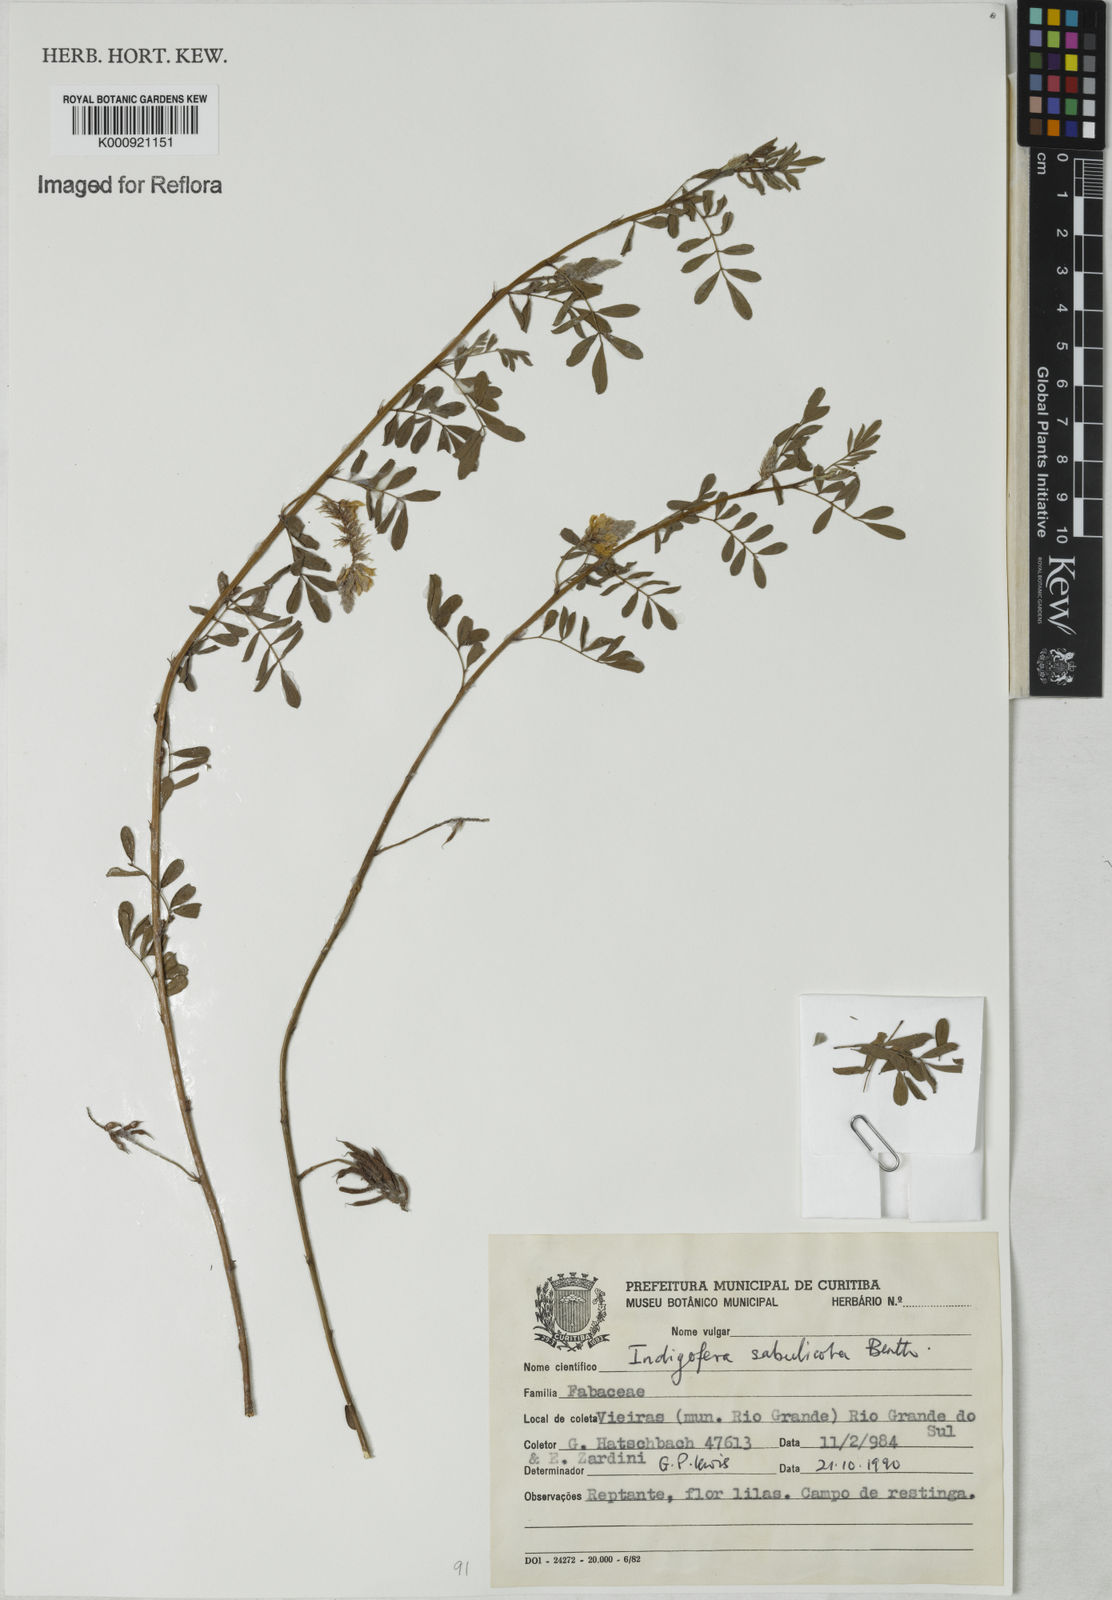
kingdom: Plantae
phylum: Tracheophyta
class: Magnoliopsida
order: Fabales
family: Fabaceae
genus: Indigofera
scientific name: Indigofera microcarpa
